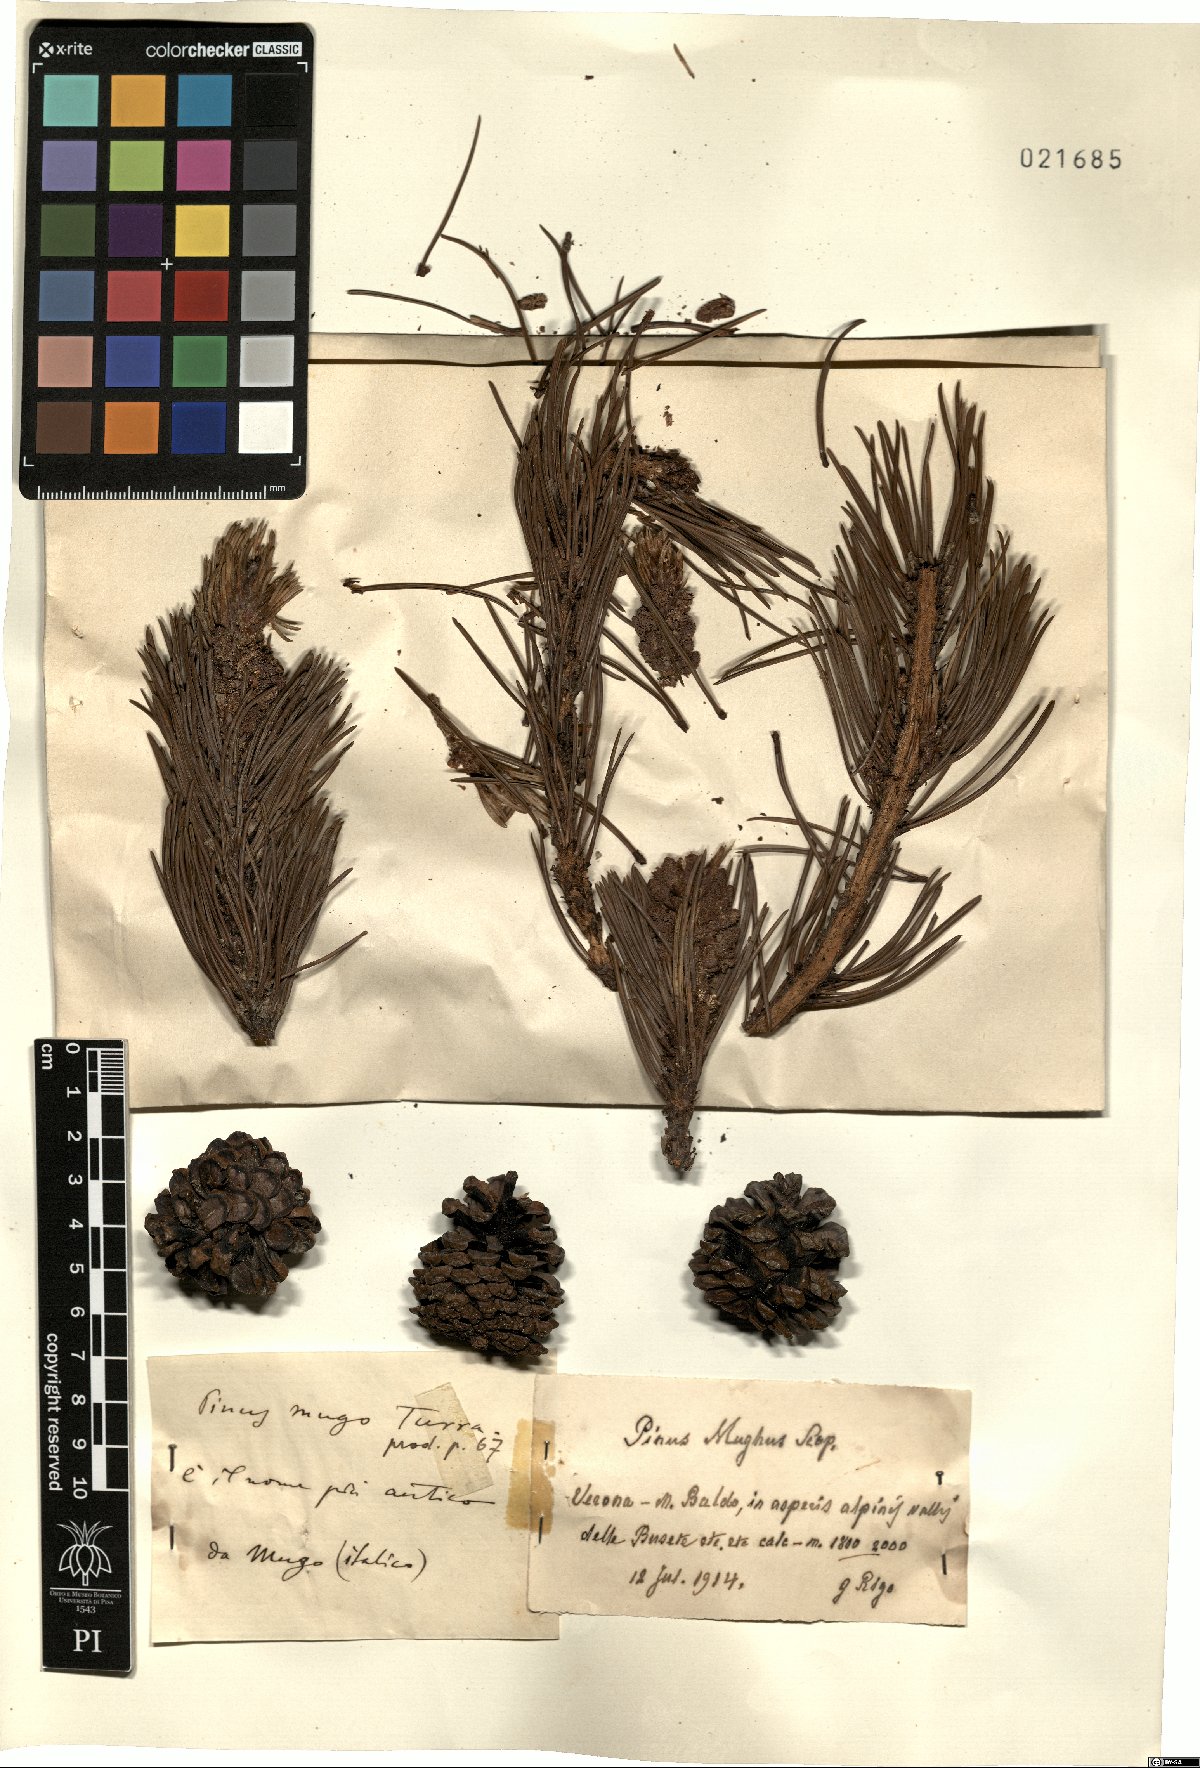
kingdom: Plantae
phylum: Tracheophyta
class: Pinopsida
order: Pinales
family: Pinaceae
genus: Pinus
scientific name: Pinus mugo
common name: Mugo pine
